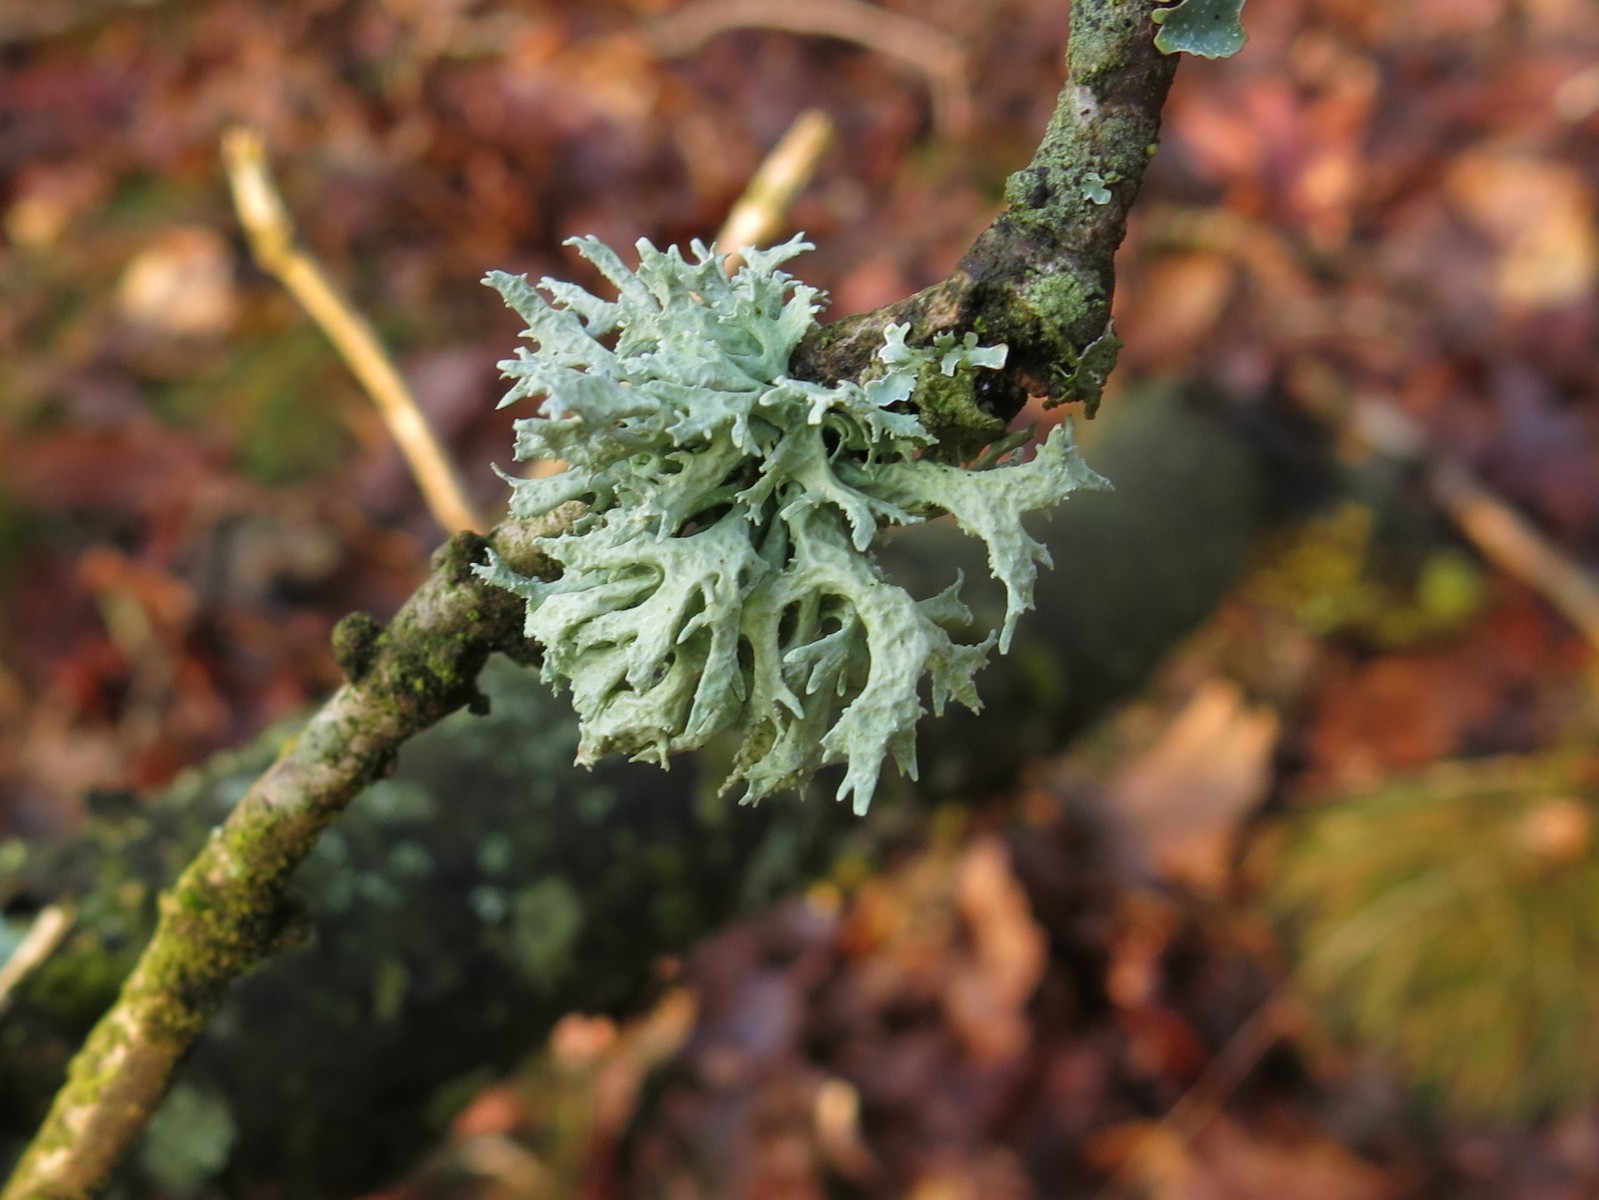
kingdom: Fungi
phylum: Ascomycota
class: Lecanoromycetes
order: Lecanorales
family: Parmeliaceae
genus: Evernia
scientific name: Evernia prunastri
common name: almindelig slåenlav
